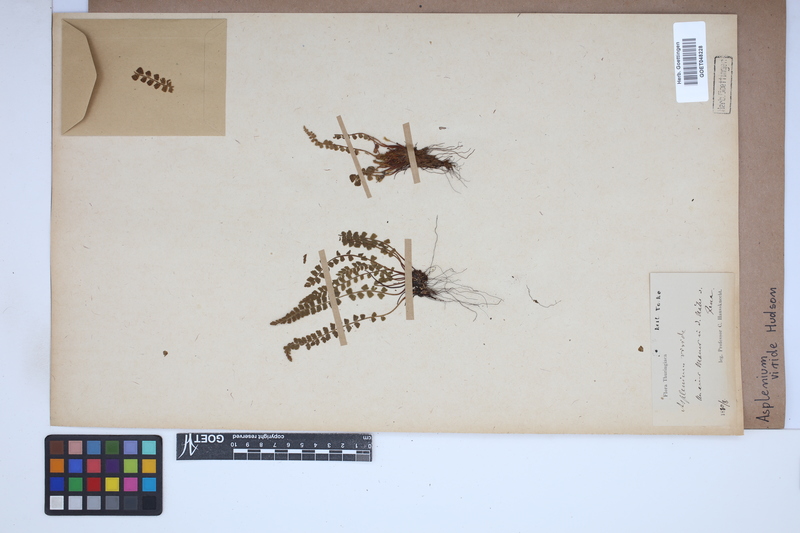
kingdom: Plantae
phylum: Tracheophyta
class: Polypodiopsida
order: Polypodiales
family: Aspleniaceae
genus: Asplenium
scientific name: Asplenium viride
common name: Green spleenwort
